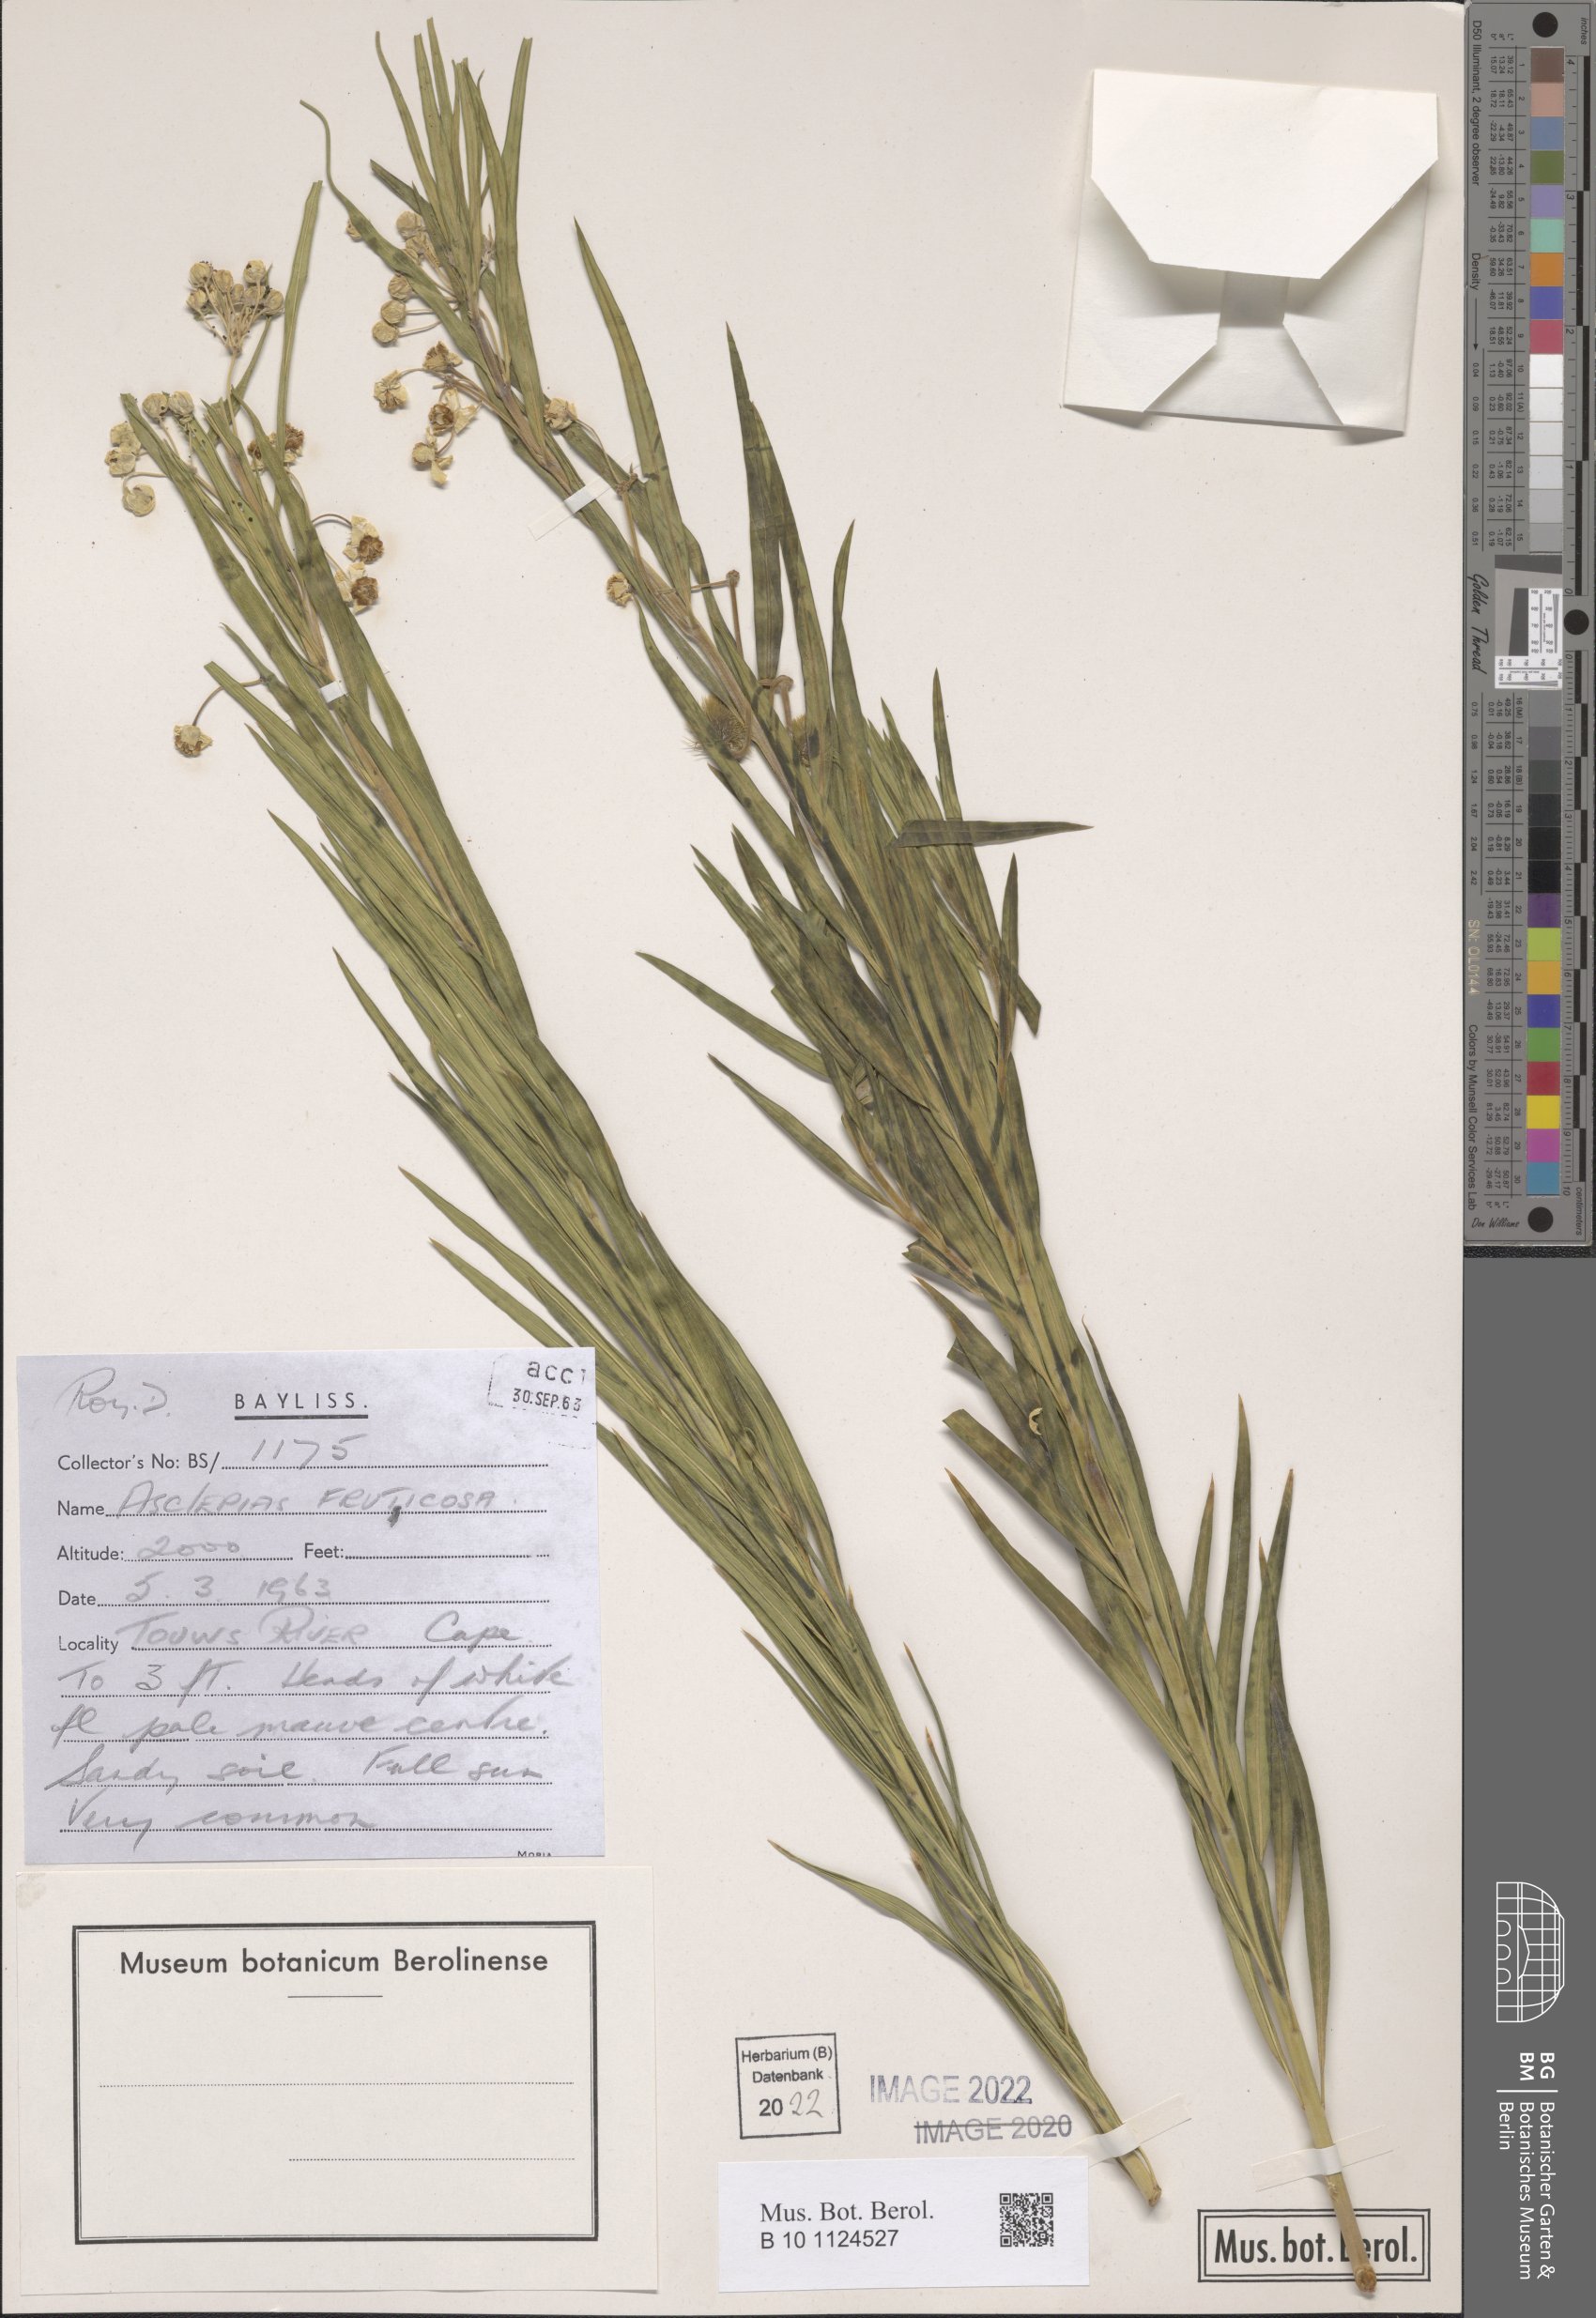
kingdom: Plantae
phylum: Tracheophyta
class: Magnoliopsida
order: Gentianales
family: Apocynaceae
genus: Gomphocarpus
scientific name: Gomphocarpus fruticosus
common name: Milkweed
